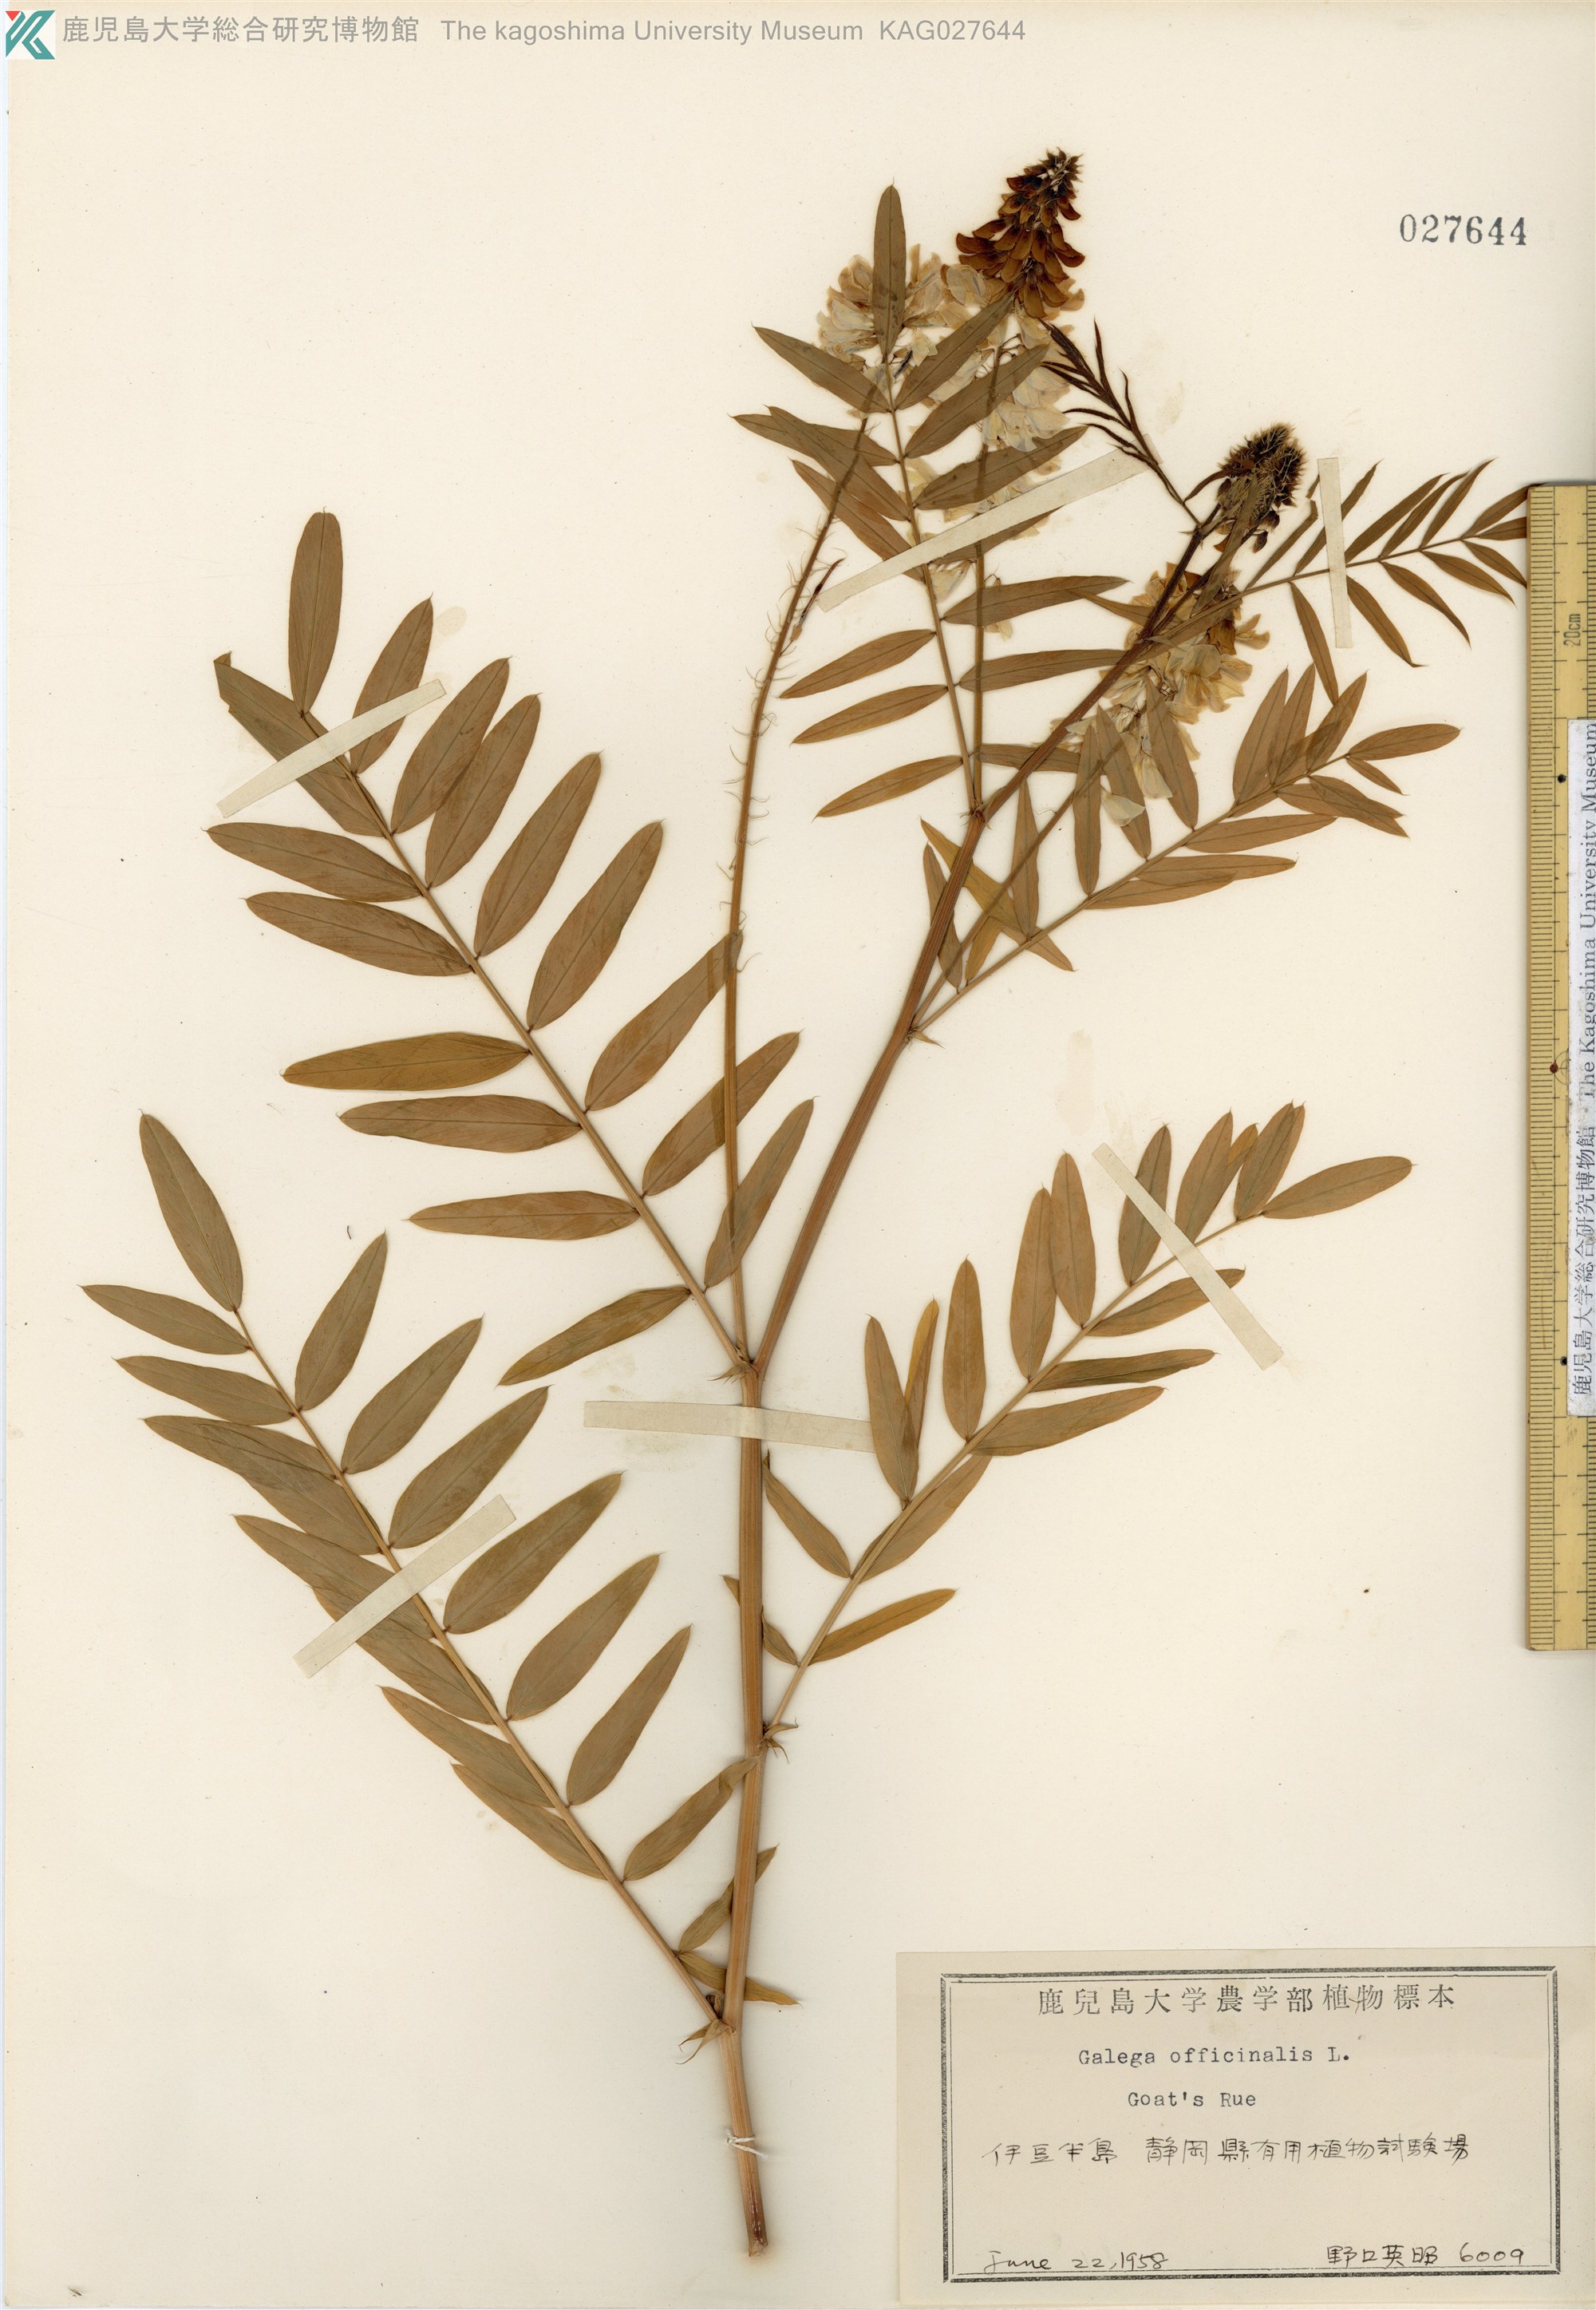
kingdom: Plantae
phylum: Tracheophyta
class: Magnoliopsida
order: Fabales
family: Fabaceae
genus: Galega
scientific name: Galega officinalis
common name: Goat's-rue
